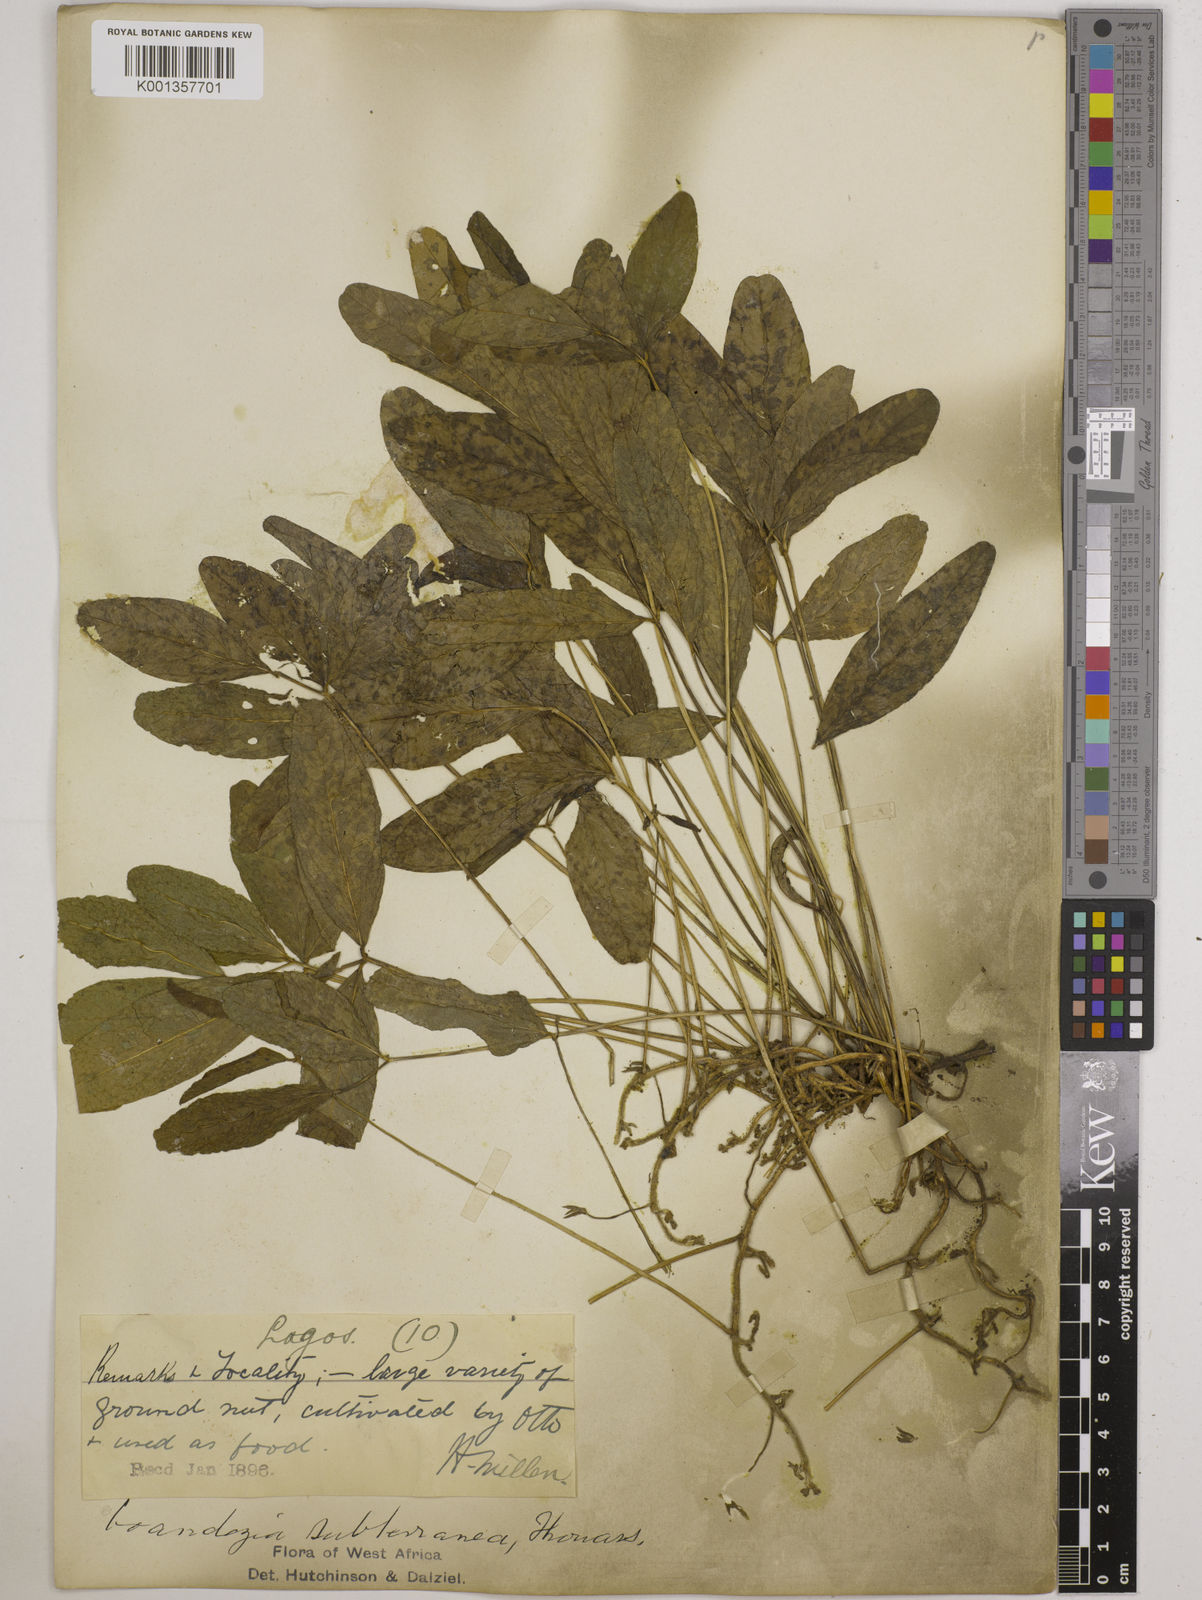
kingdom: Plantae
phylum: Tracheophyta
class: Magnoliopsida
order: Fabales
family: Fabaceae
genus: Vigna
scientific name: Vigna subterranea
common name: Bambara groundnut
